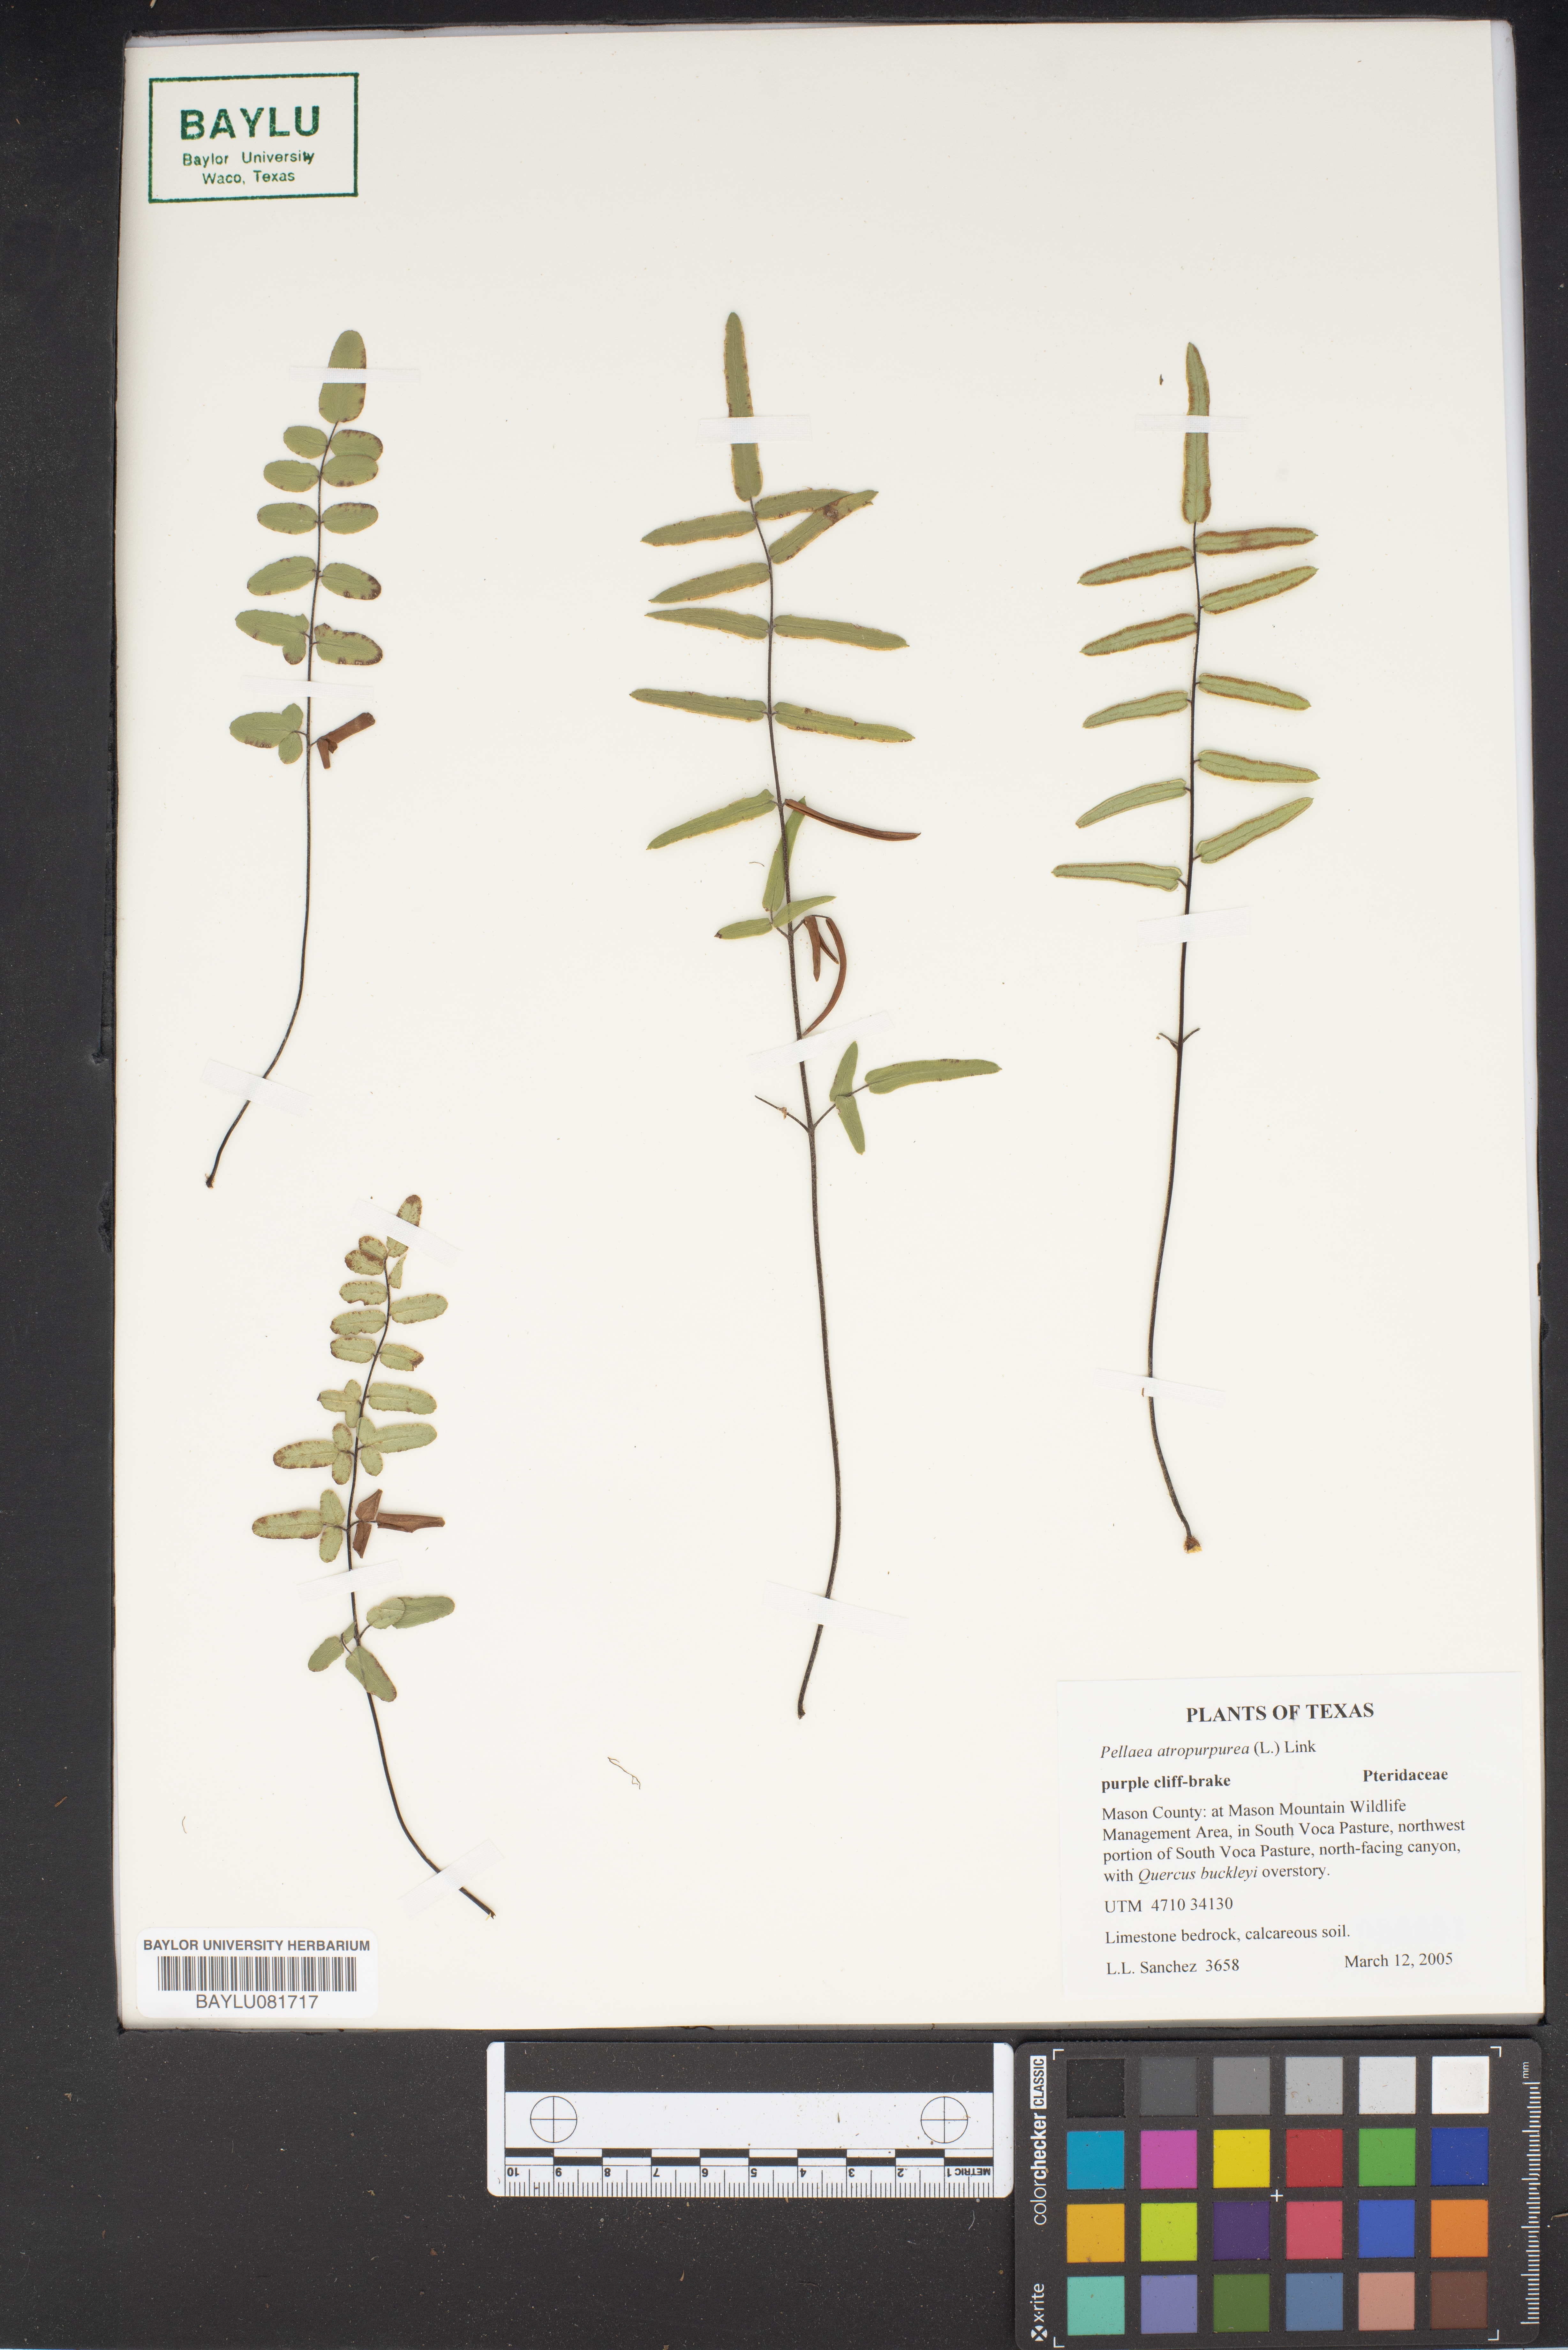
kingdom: Plantae
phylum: Tracheophyta
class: Polypodiopsida
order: Polypodiales
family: Pteridaceae
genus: Pellaea
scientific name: Pellaea atropurpurea
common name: Hairy cliffbrake
